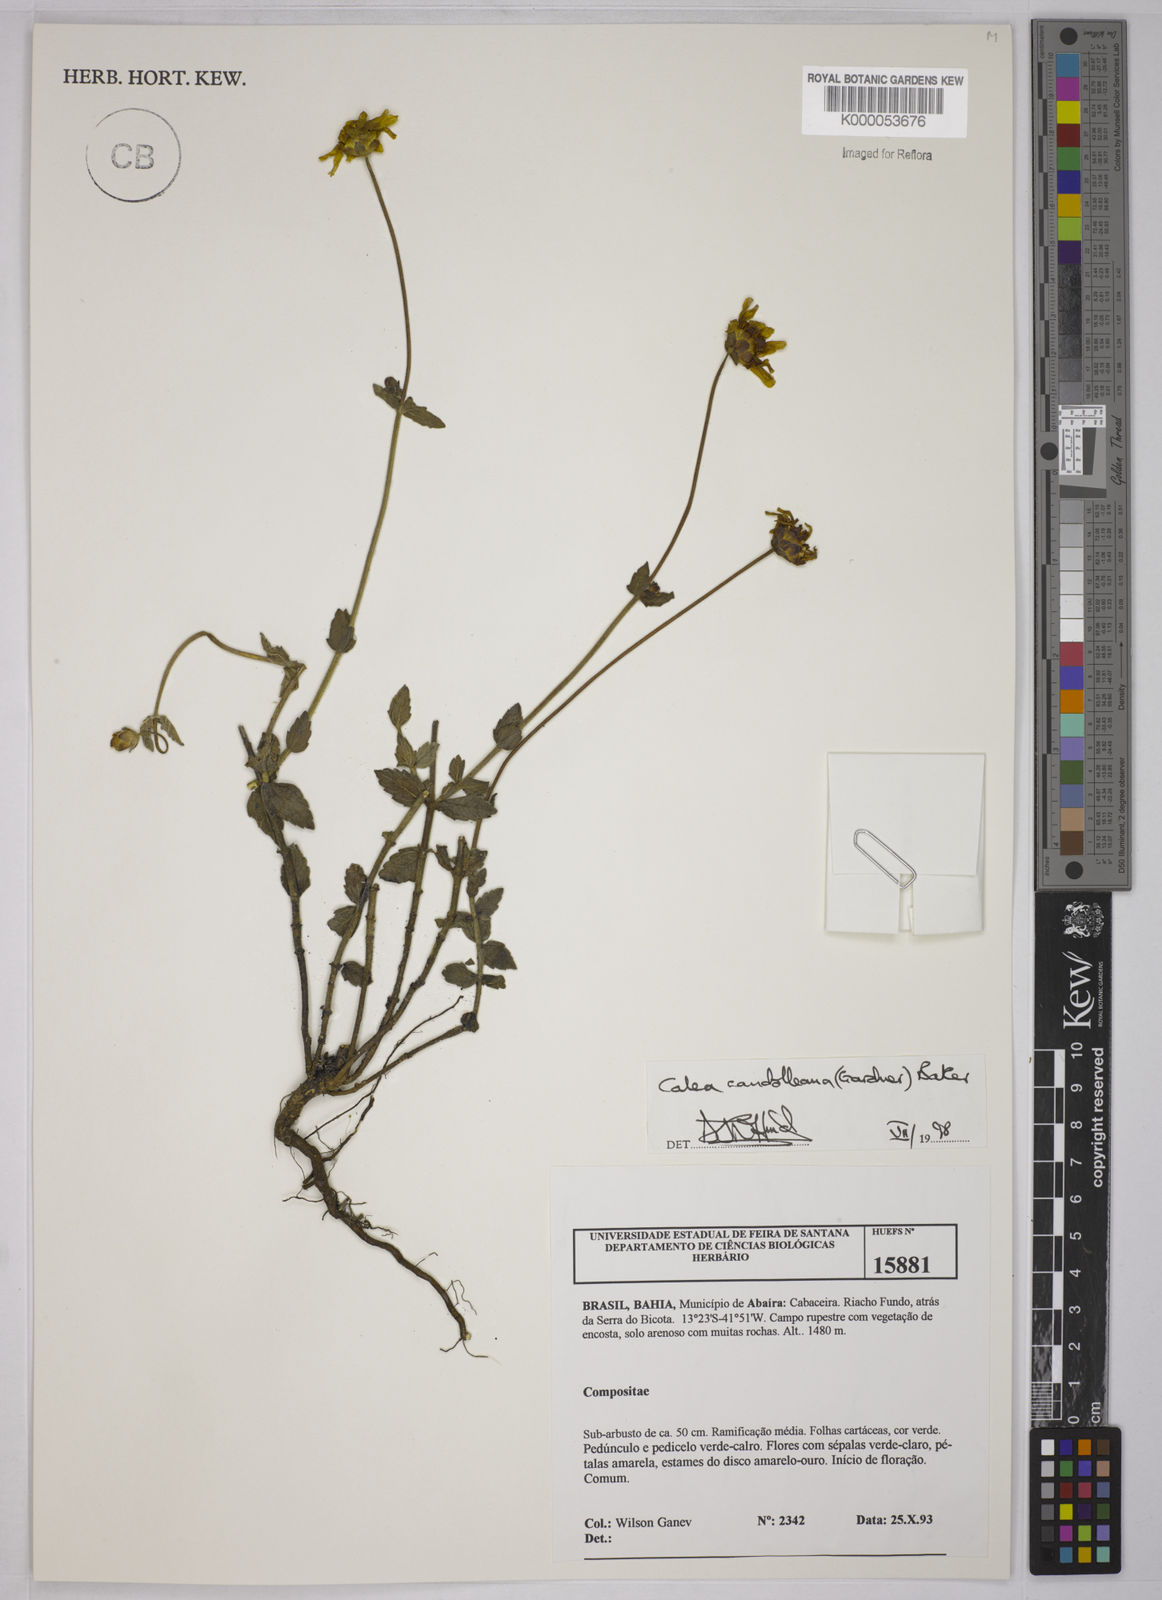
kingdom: Plantae
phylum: Tracheophyta
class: Magnoliopsida
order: Asterales
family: Asteraceae
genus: Calea
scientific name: Calea candolleana
